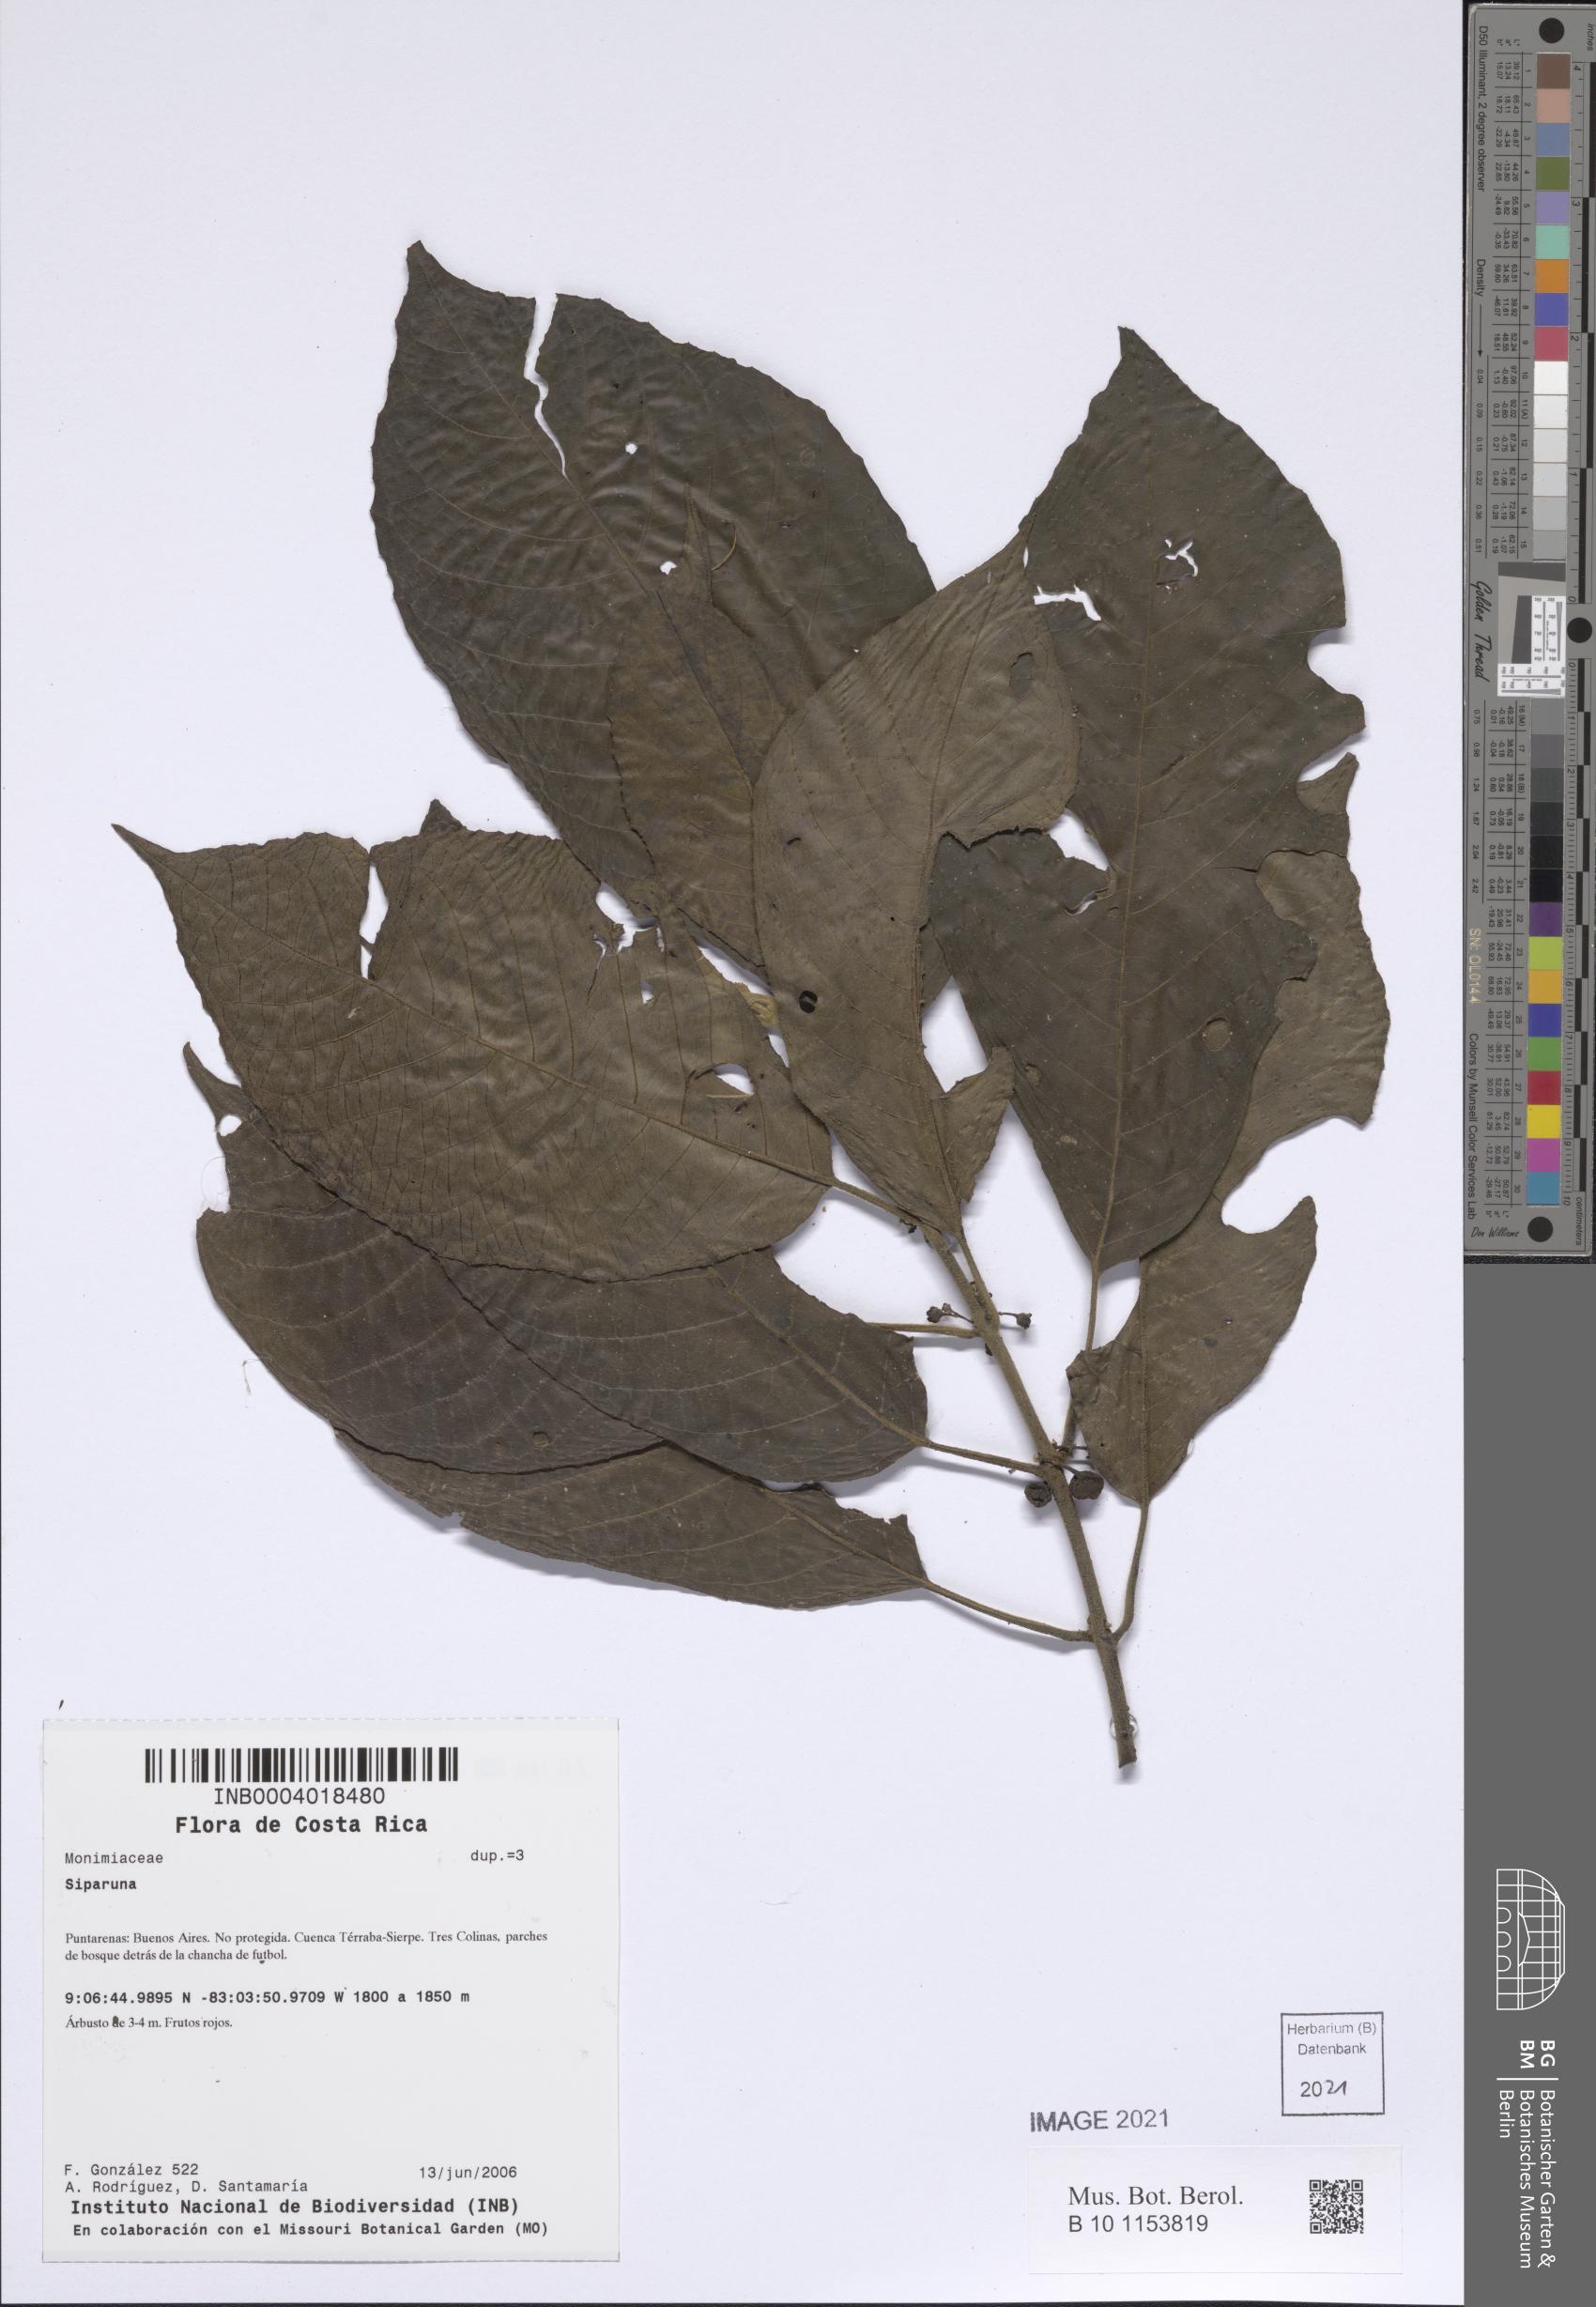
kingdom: Plantae
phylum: Tracheophyta
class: Magnoliopsida
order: Laurales
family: Siparunaceae
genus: Siparuna
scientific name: Siparuna
